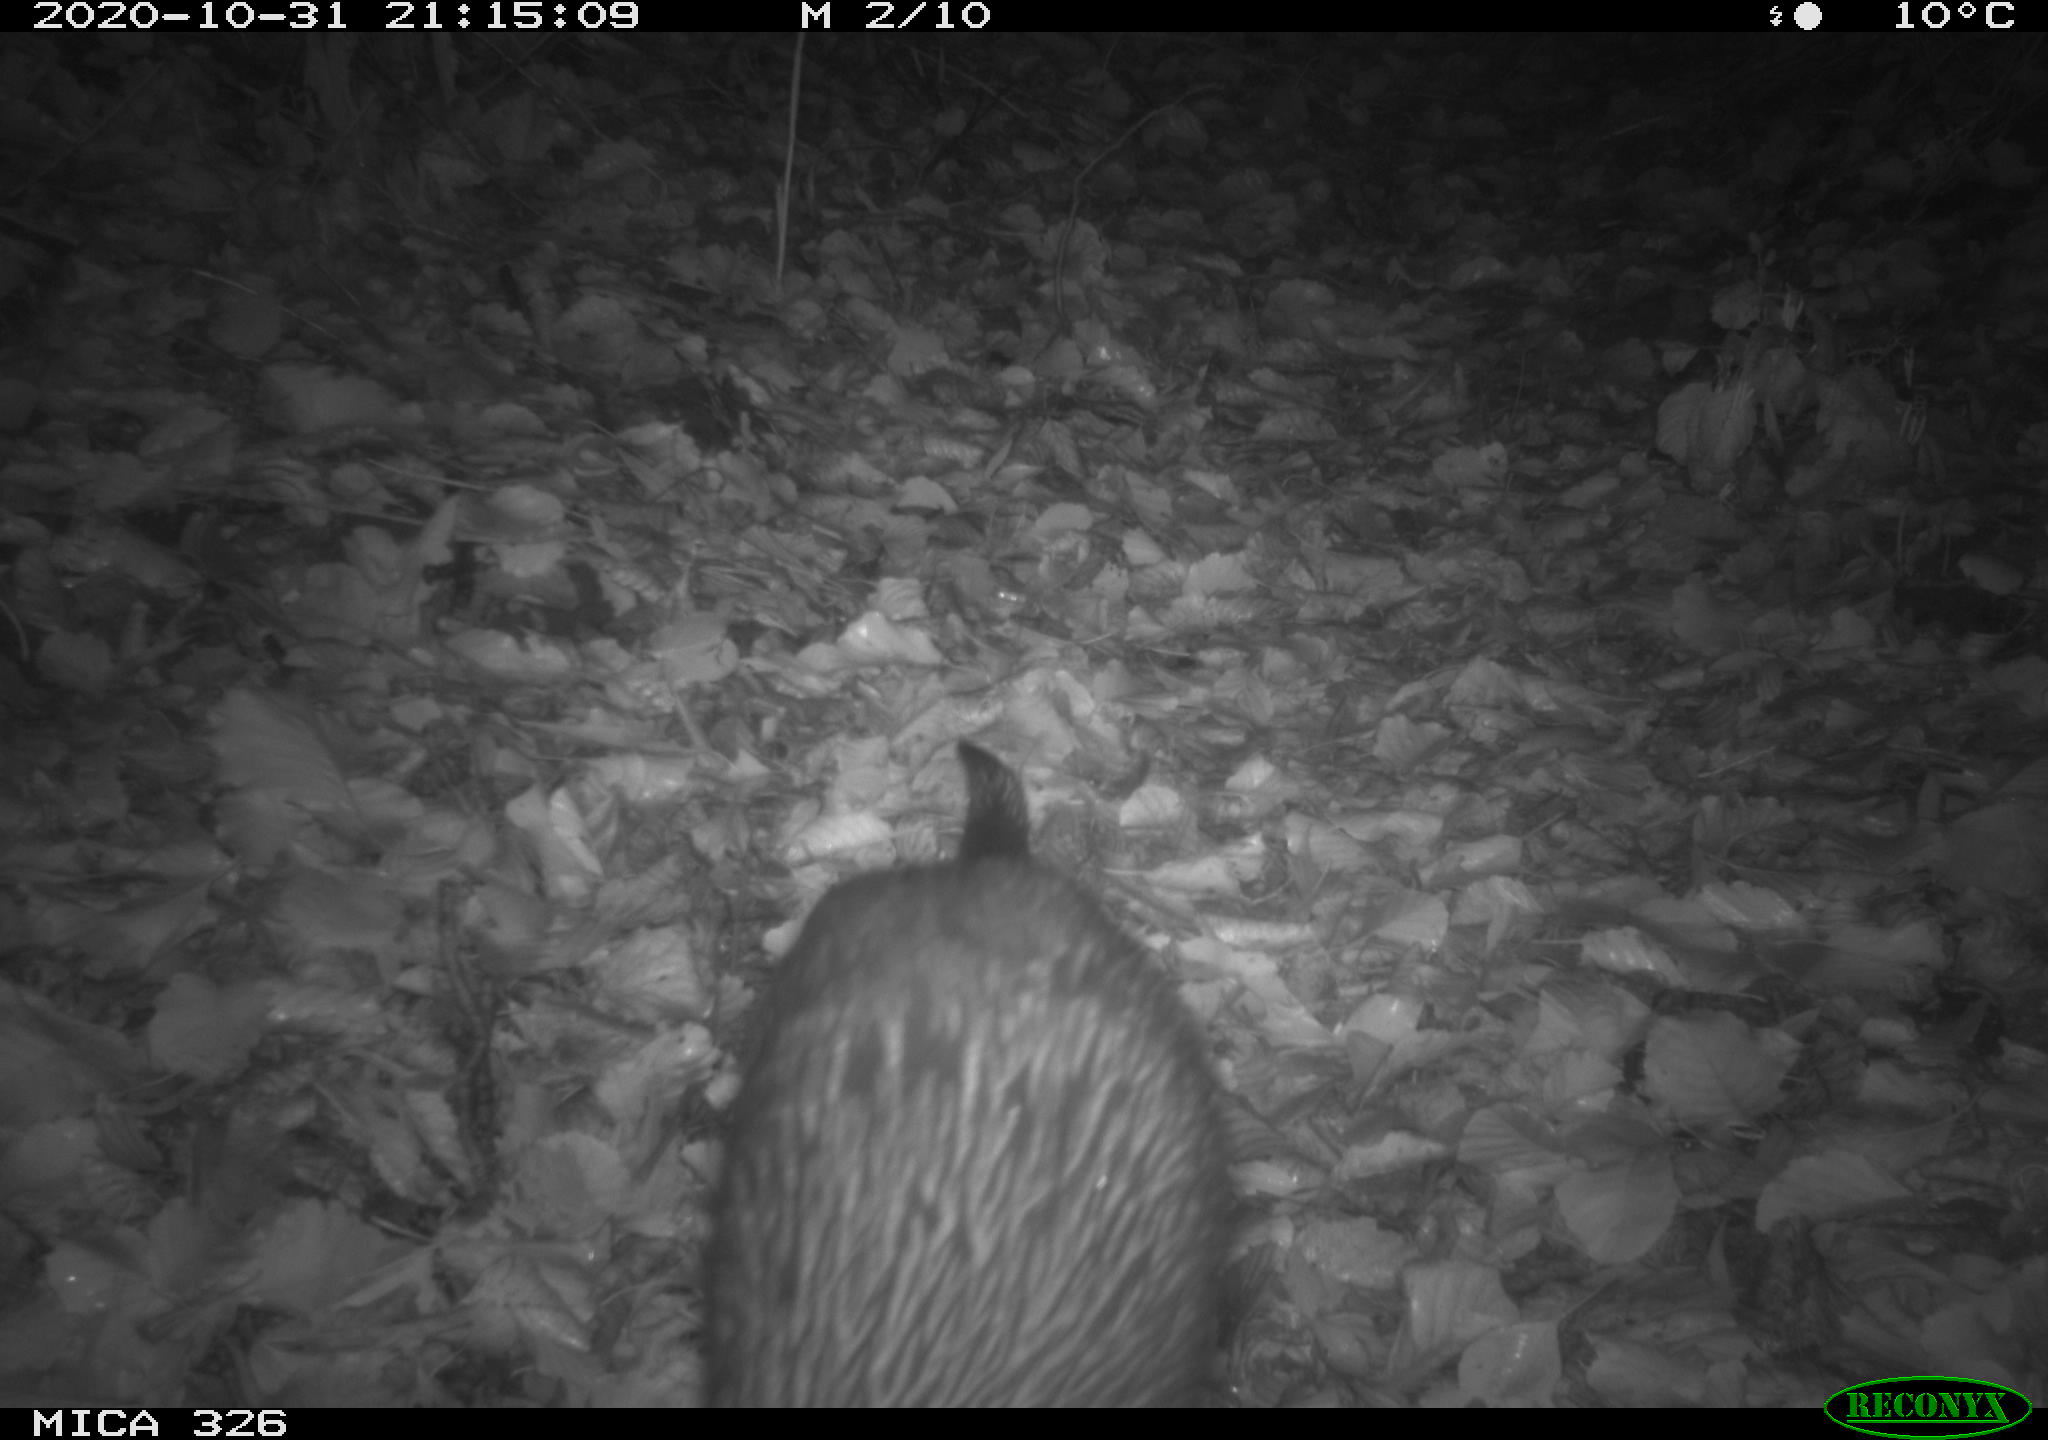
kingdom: Animalia
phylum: Chordata
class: Mammalia
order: Carnivora
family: Mustelidae
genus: Lutra
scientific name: Lutra lutra
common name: European otter
